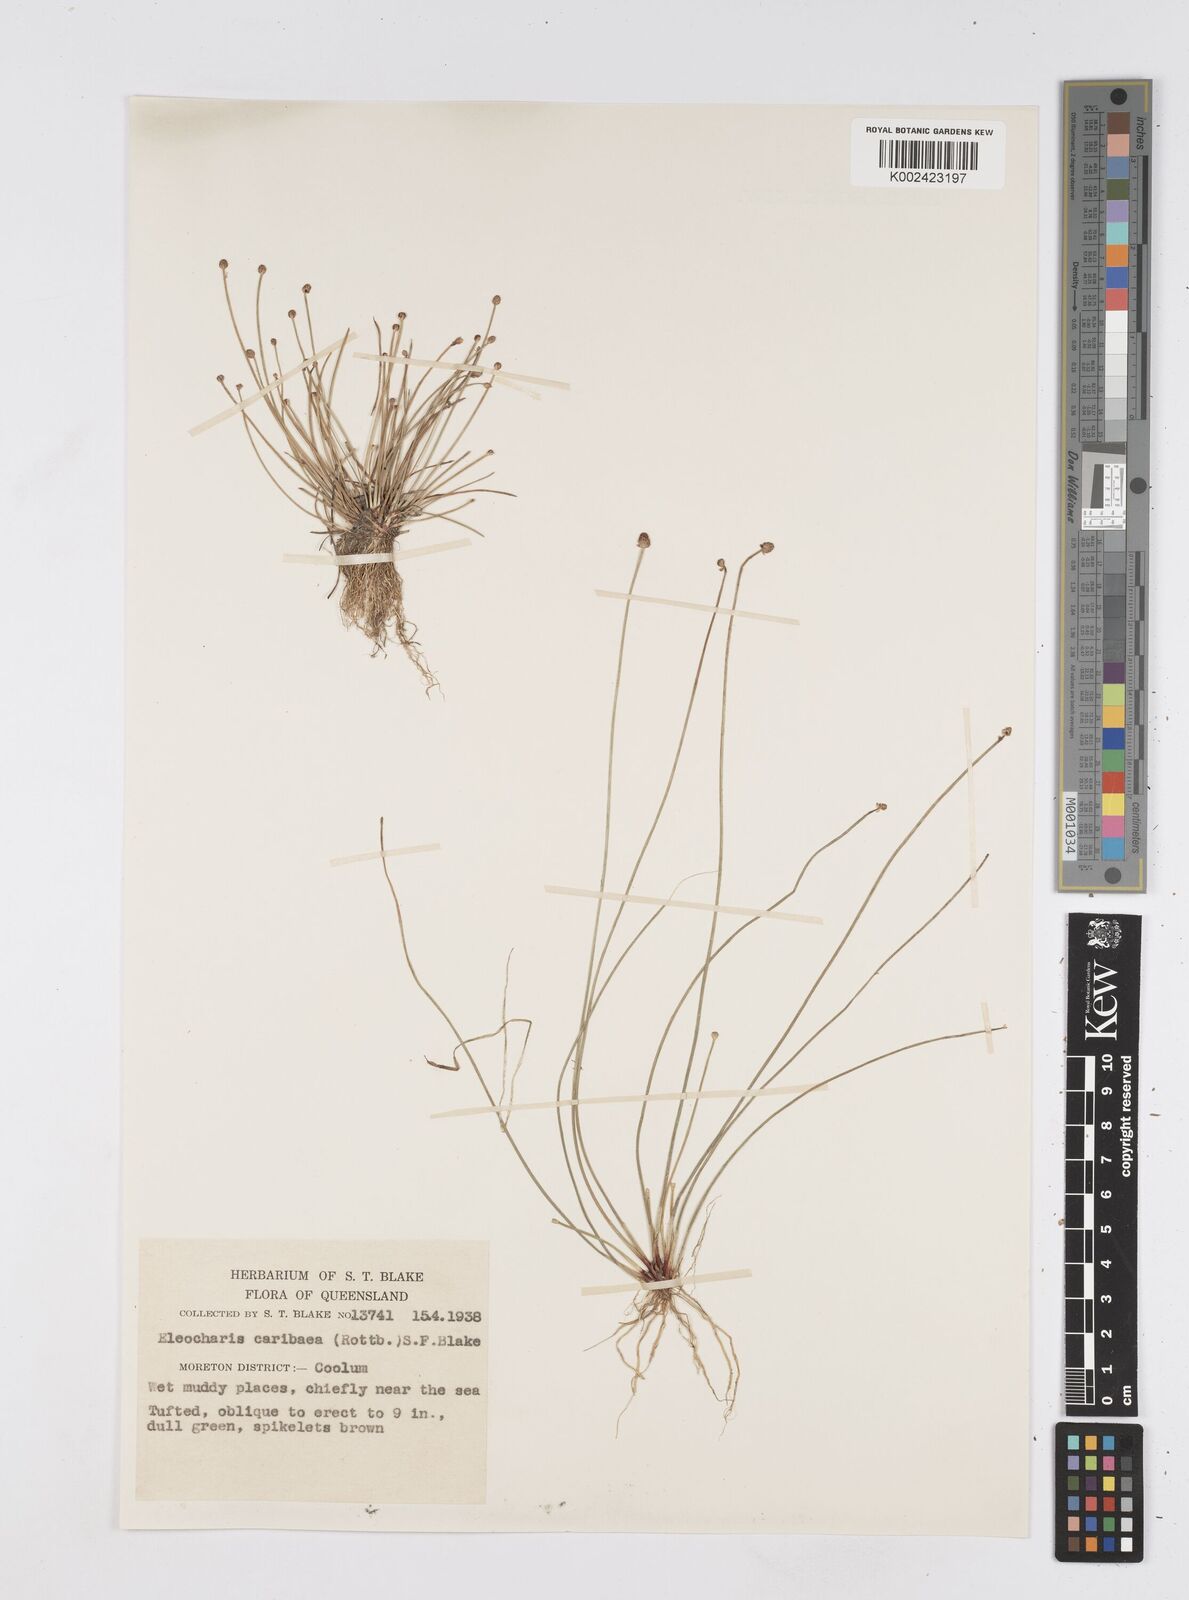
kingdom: Plantae
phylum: Tracheophyta
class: Liliopsida
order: Poales
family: Cyperaceae
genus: Eleocharis
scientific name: Eleocharis geniculata
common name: Canada spikesedge
